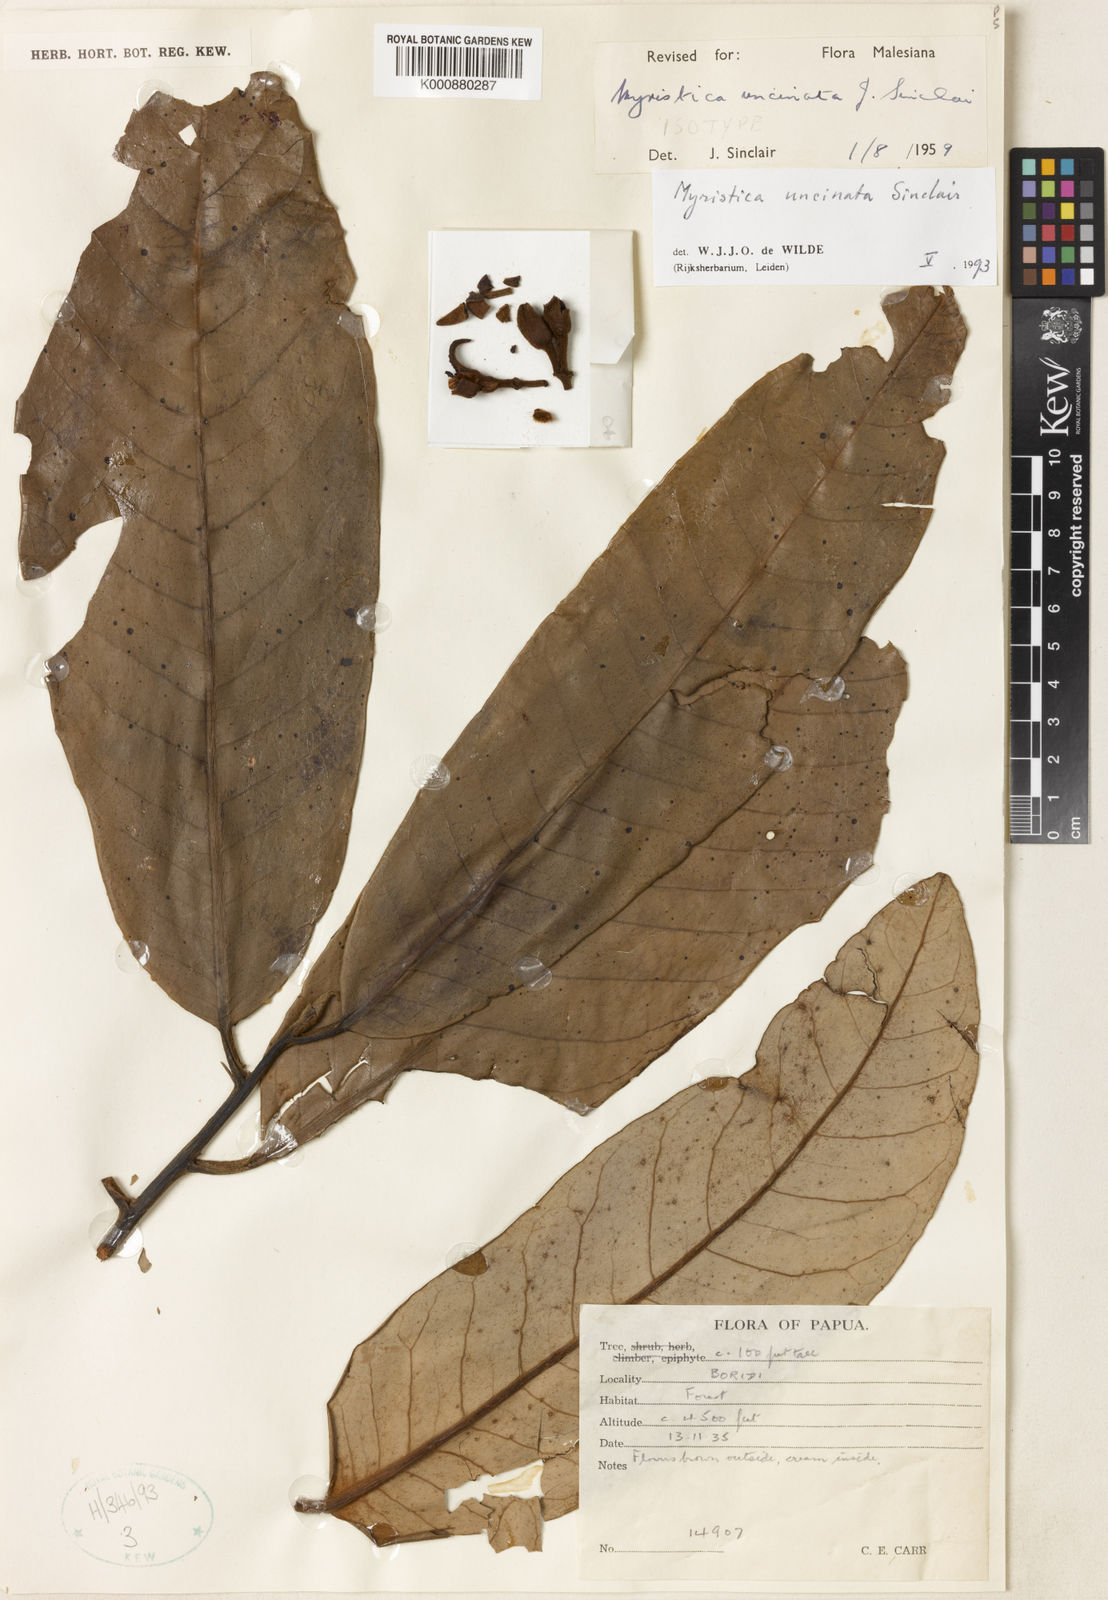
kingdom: Plantae
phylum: Tracheophyta
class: Magnoliopsida
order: Magnoliales
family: Myristicaceae
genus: Myristica
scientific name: Myristica uncinata
